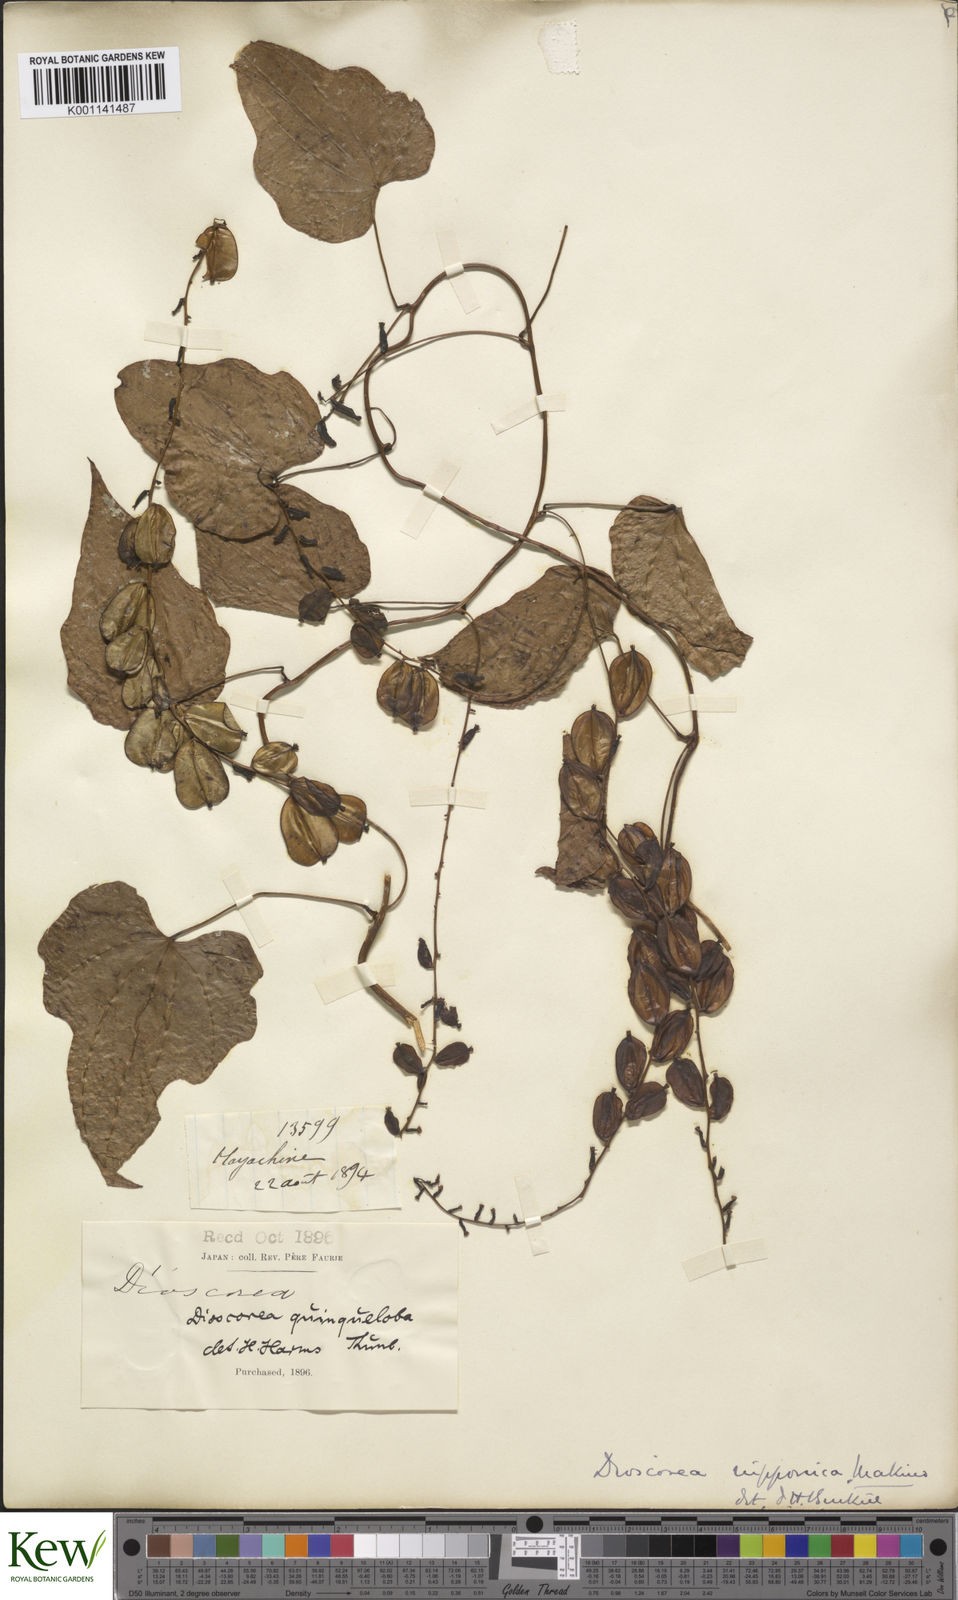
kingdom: Plantae
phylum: Tracheophyta
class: Liliopsida
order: Dioscoreales
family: Dioscoreaceae
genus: Dioscorea
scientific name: Dioscorea nipponica
